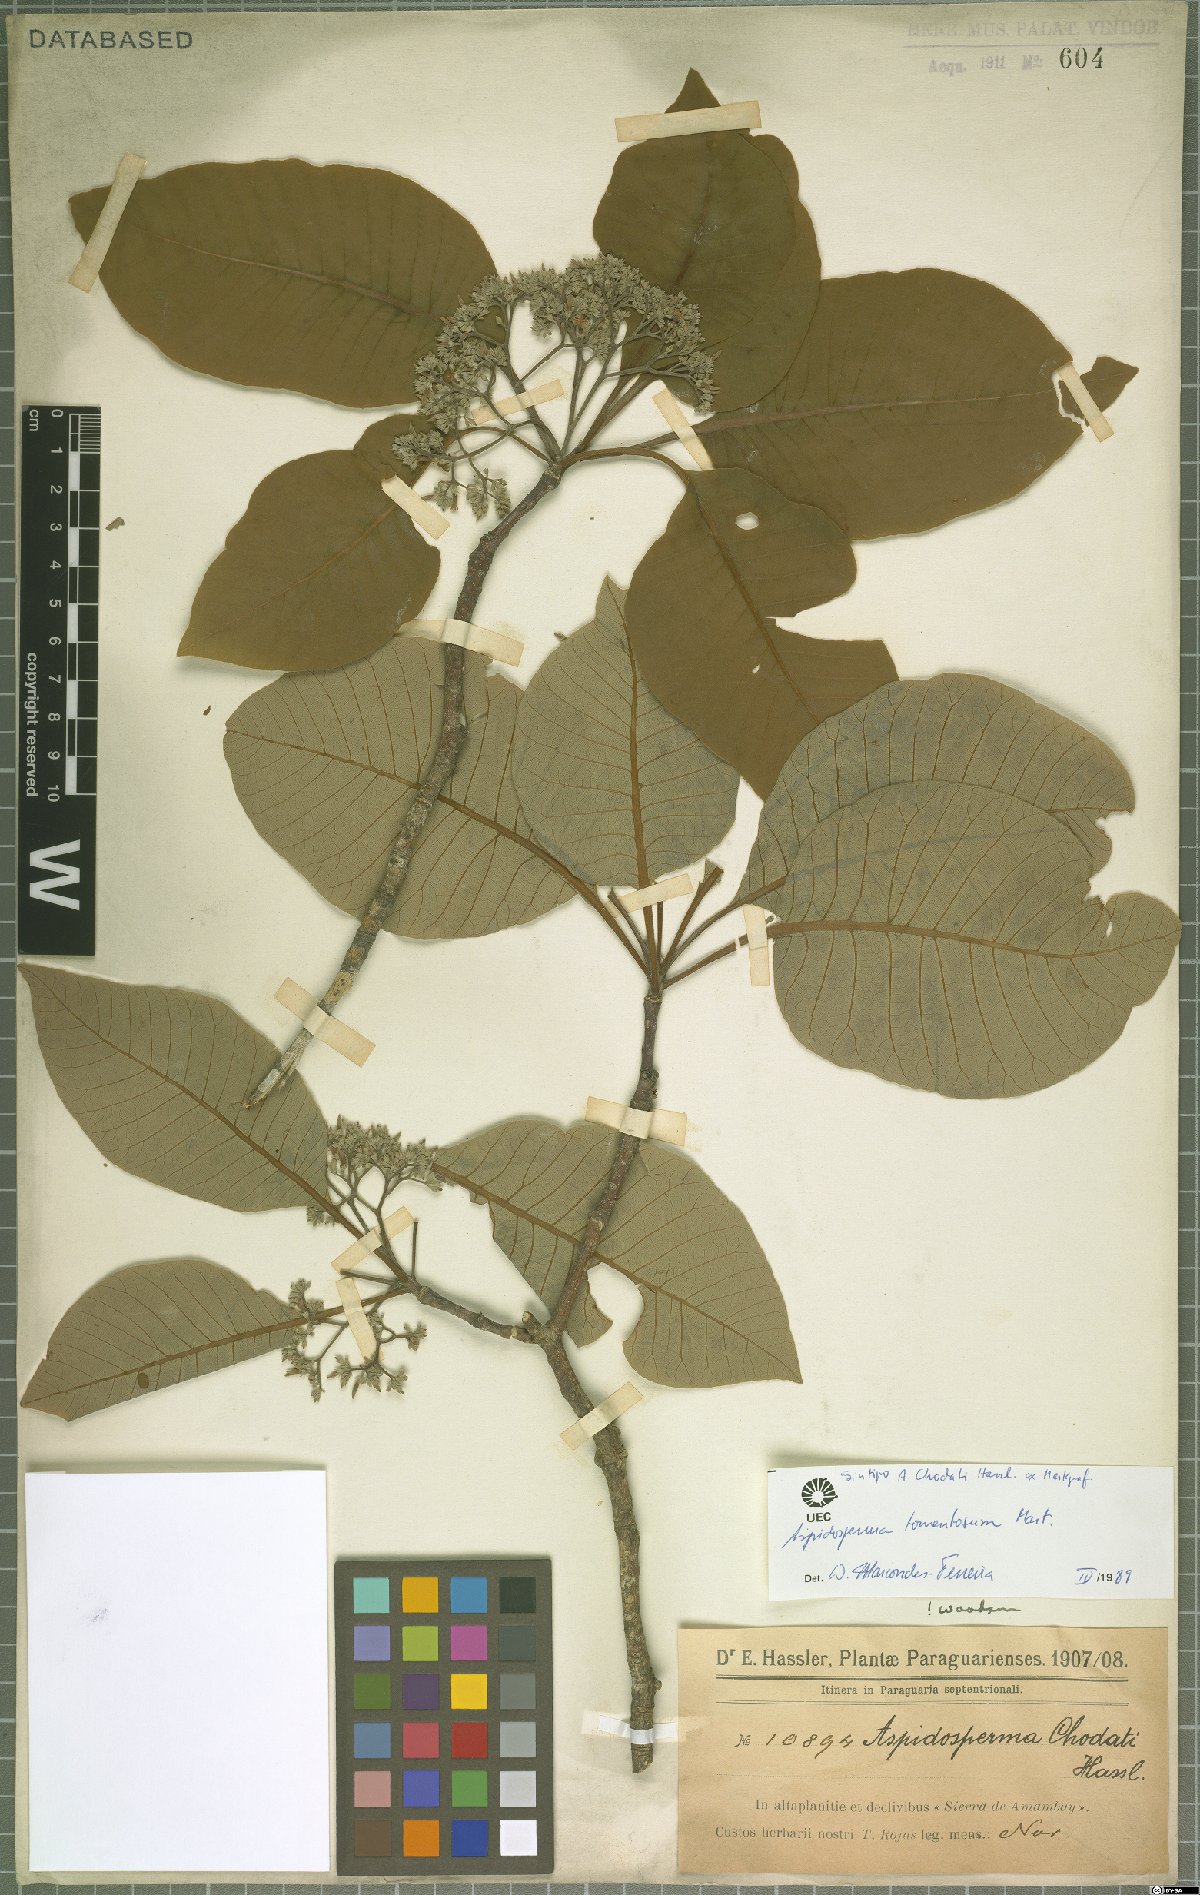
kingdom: Plantae
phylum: Tracheophyta
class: Magnoliopsida
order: Gentianales
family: Apocynaceae
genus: Aspidosperma
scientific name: Aspidosperma tomentosum
